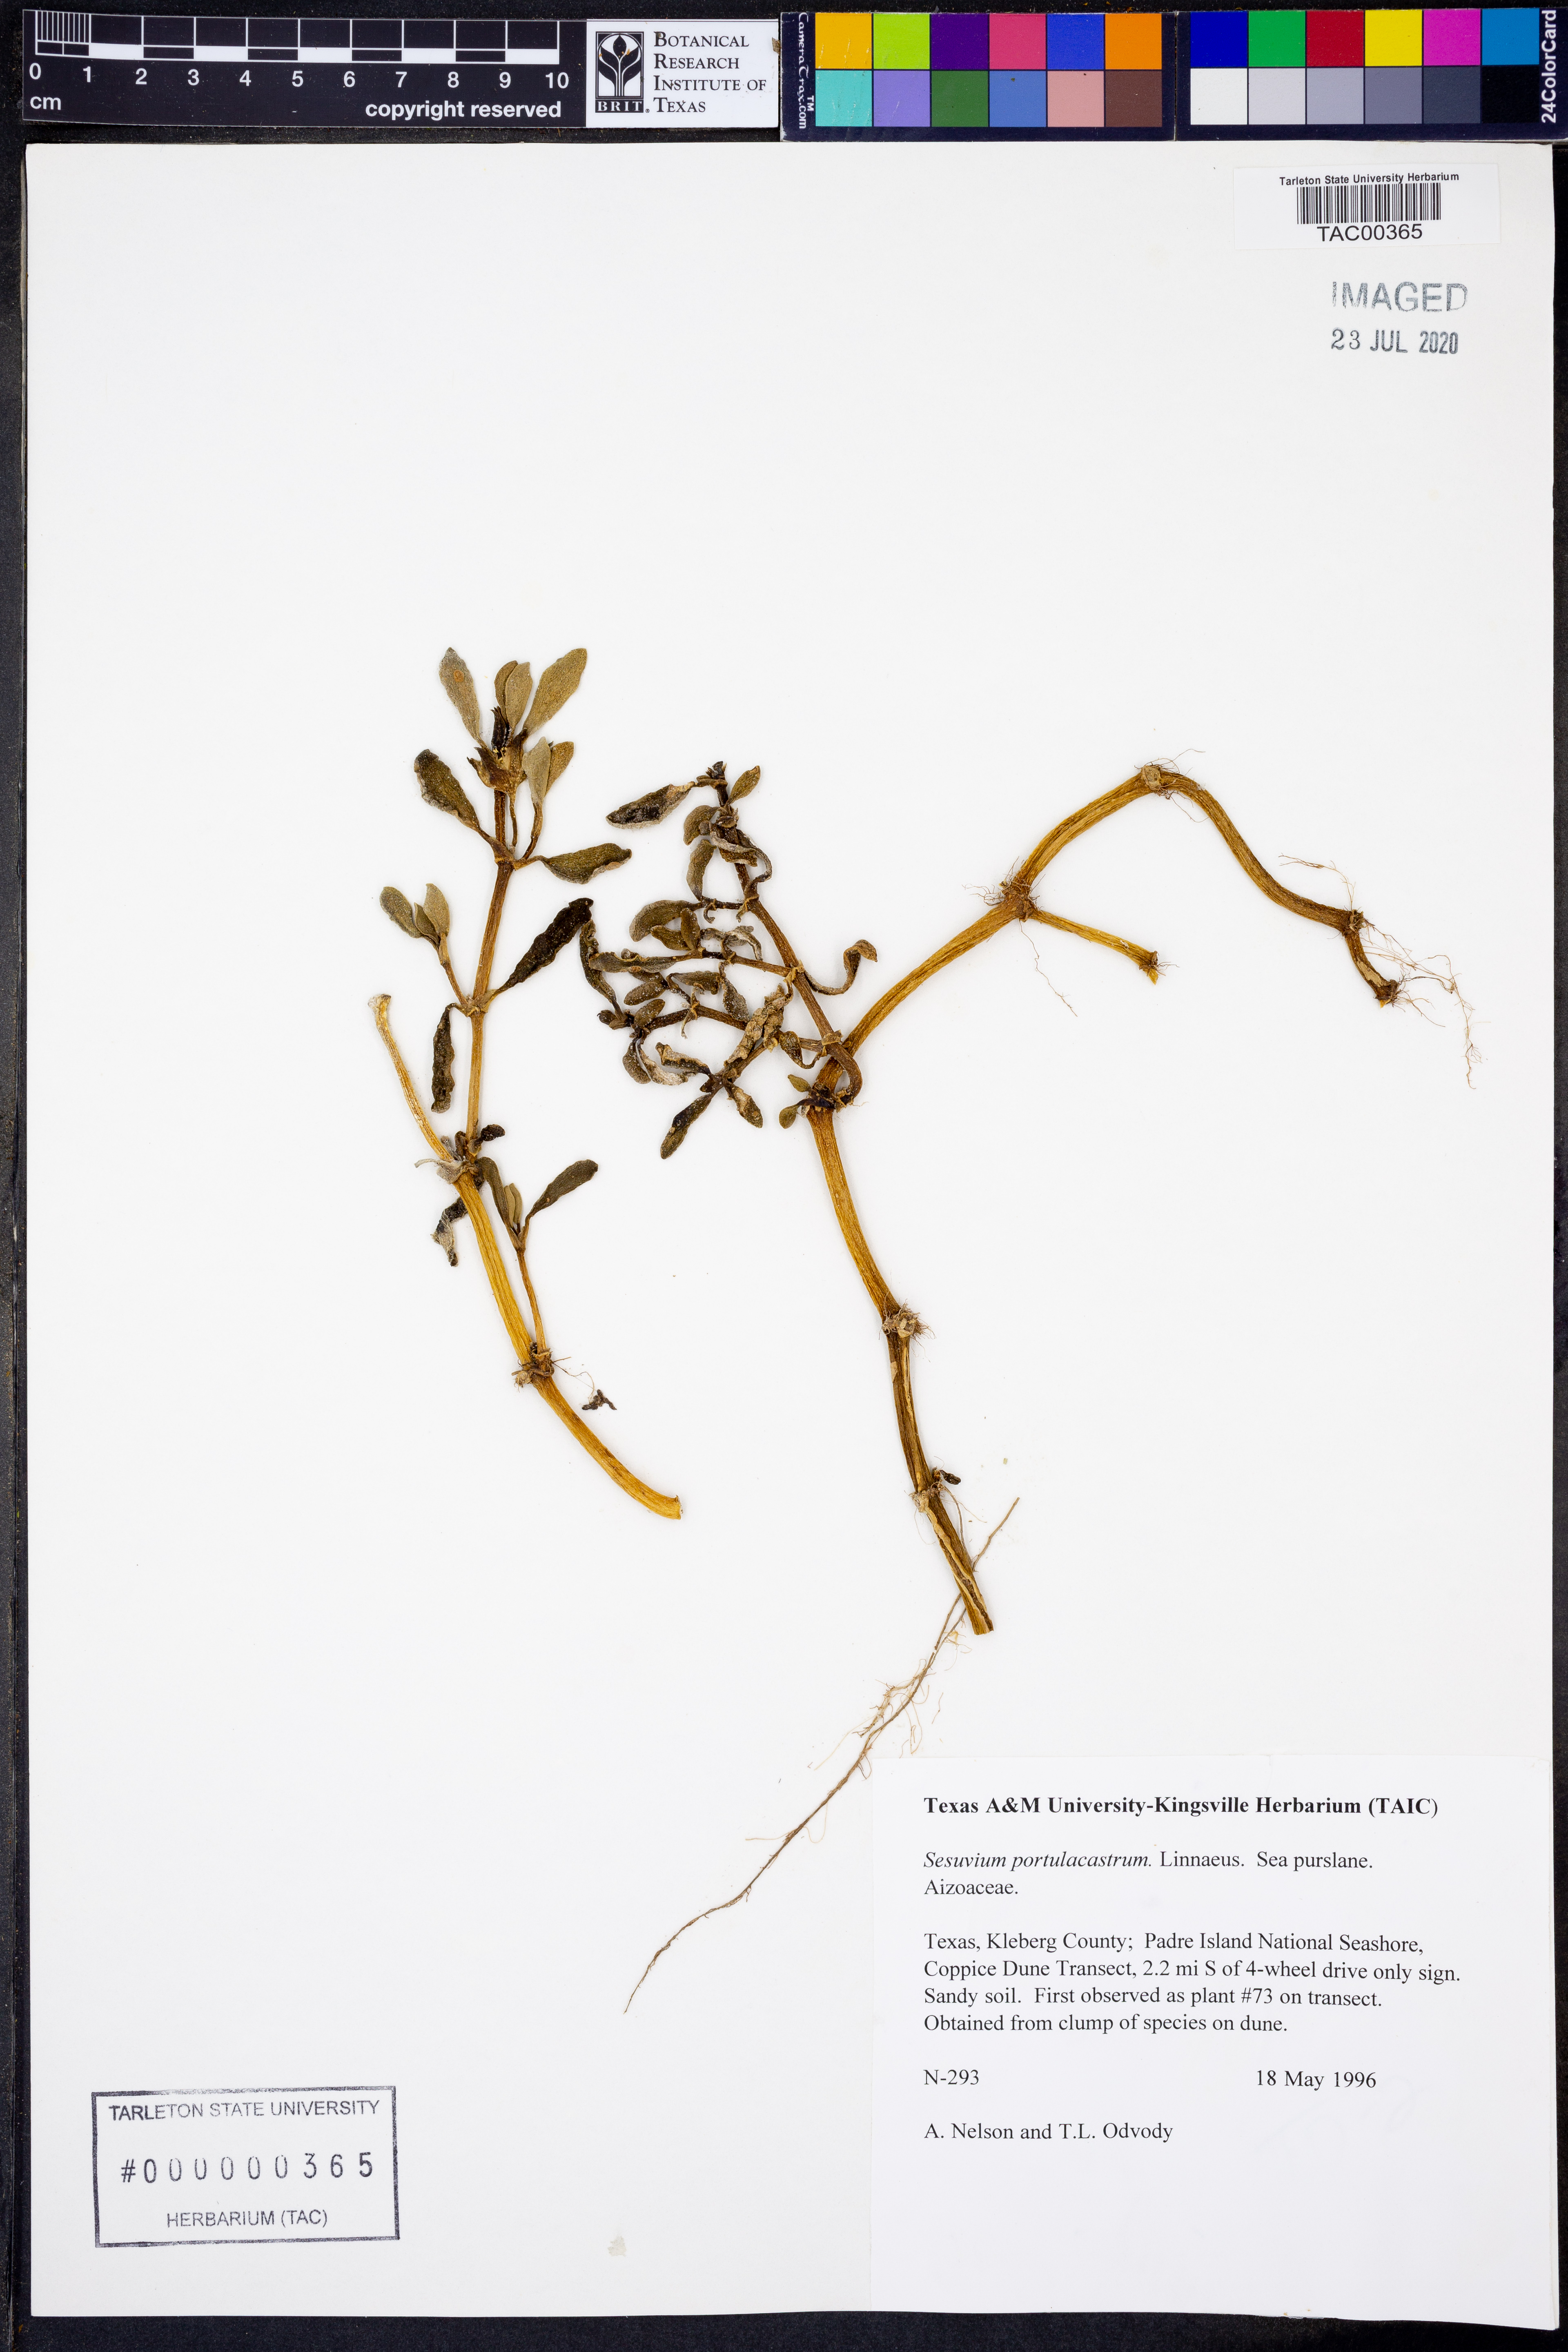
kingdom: Plantae
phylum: Tracheophyta
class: Magnoliopsida
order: Caryophyllales
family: Aizoaceae
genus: Sesuvium
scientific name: Sesuvium portulacastrum
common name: Sea-purslane
